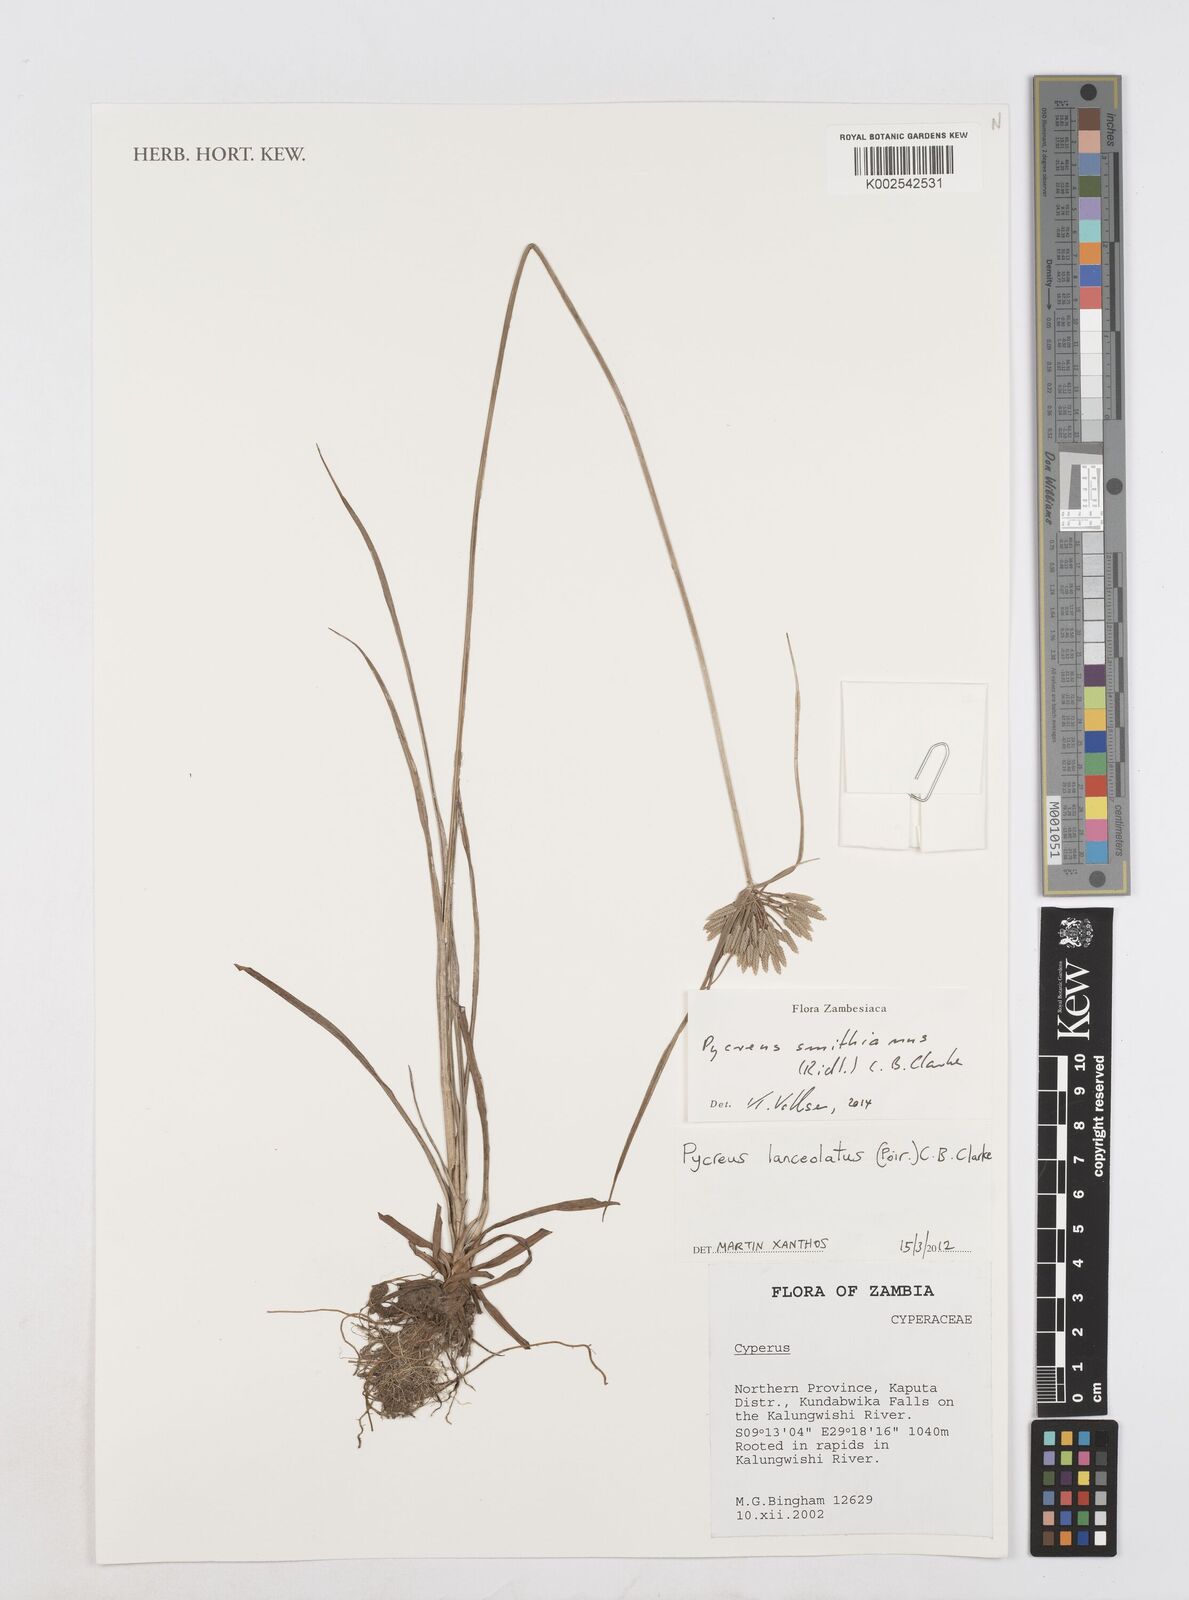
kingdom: Plantae
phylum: Tracheophyta
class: Liliopsida
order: Poales
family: Cyperaceae
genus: Cyperus
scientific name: Cyperus smithianus
